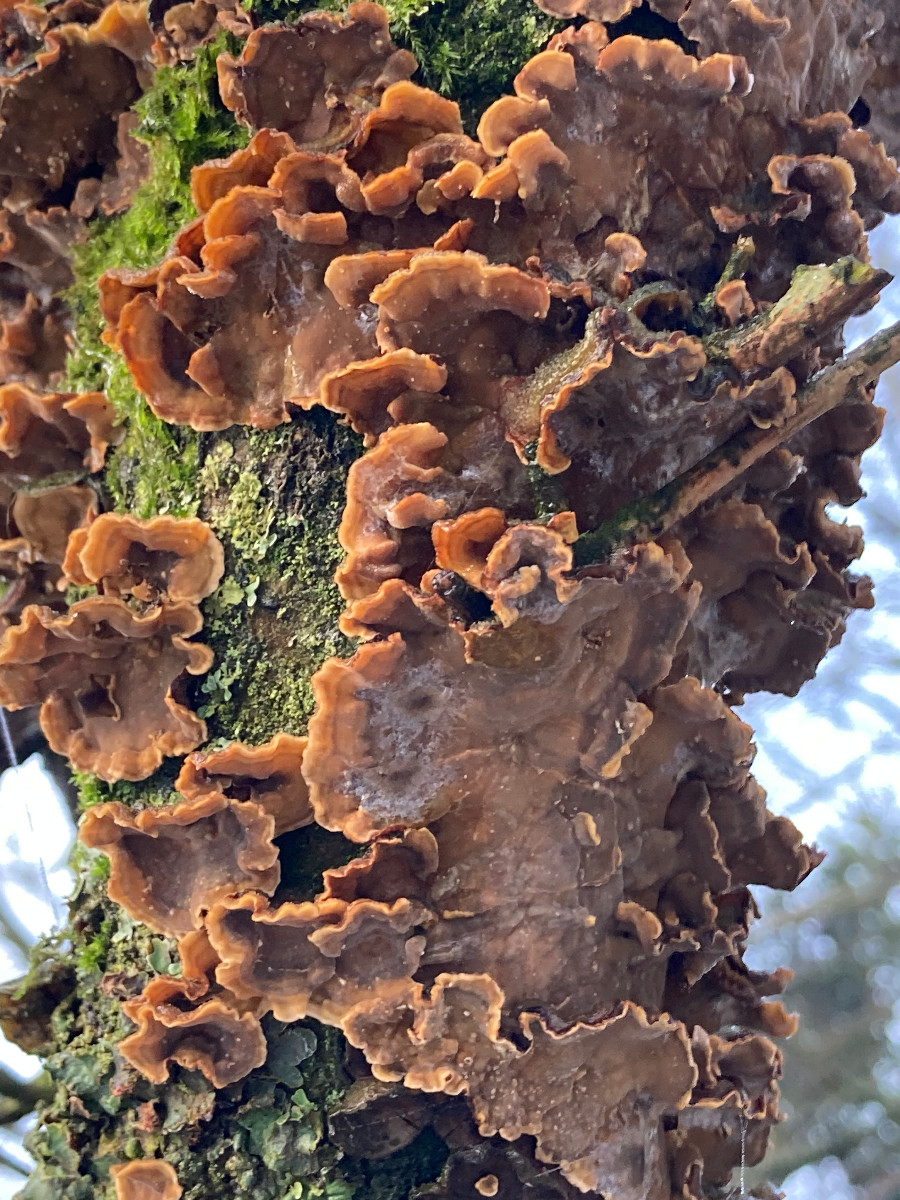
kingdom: Fungi
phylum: Basidiomycota
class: Agaricomycetes
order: Russulales
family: Stereaceae
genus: Stereum
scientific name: Stereum hirsutum
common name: håret lædersvamp
